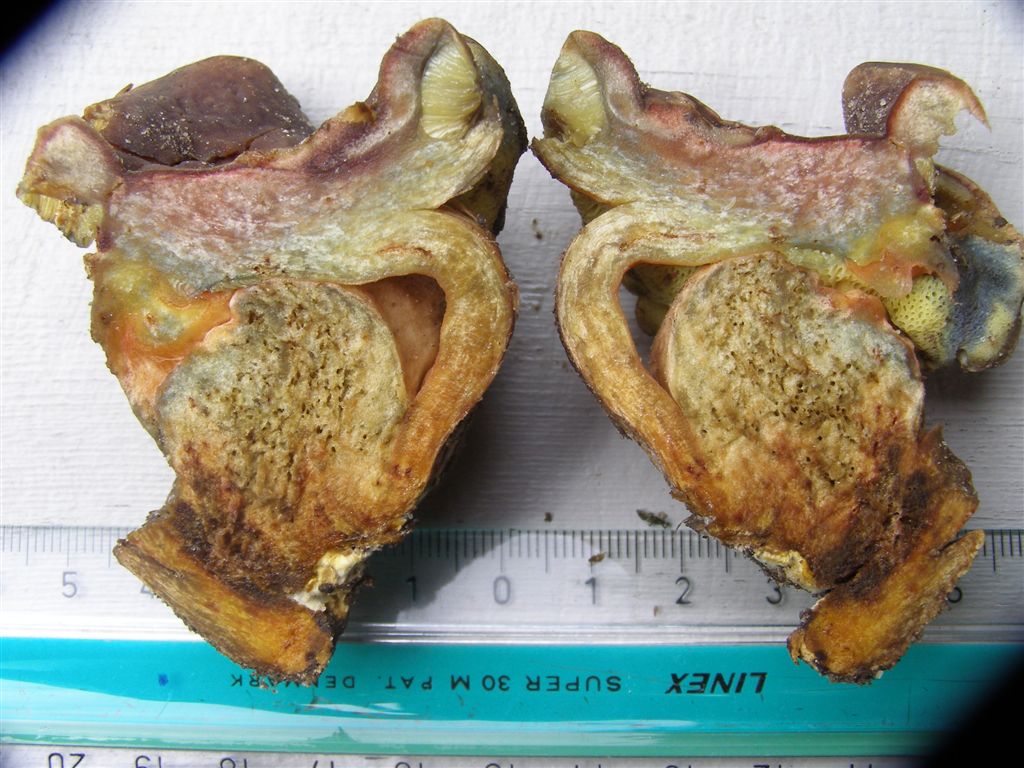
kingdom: Fungi
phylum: Basidiomycota
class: Agaricomycetes
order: Boletales
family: Boletaceae
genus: Hortiboletus
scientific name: Hortiboletus bubalinus
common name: aurora-rørhat
